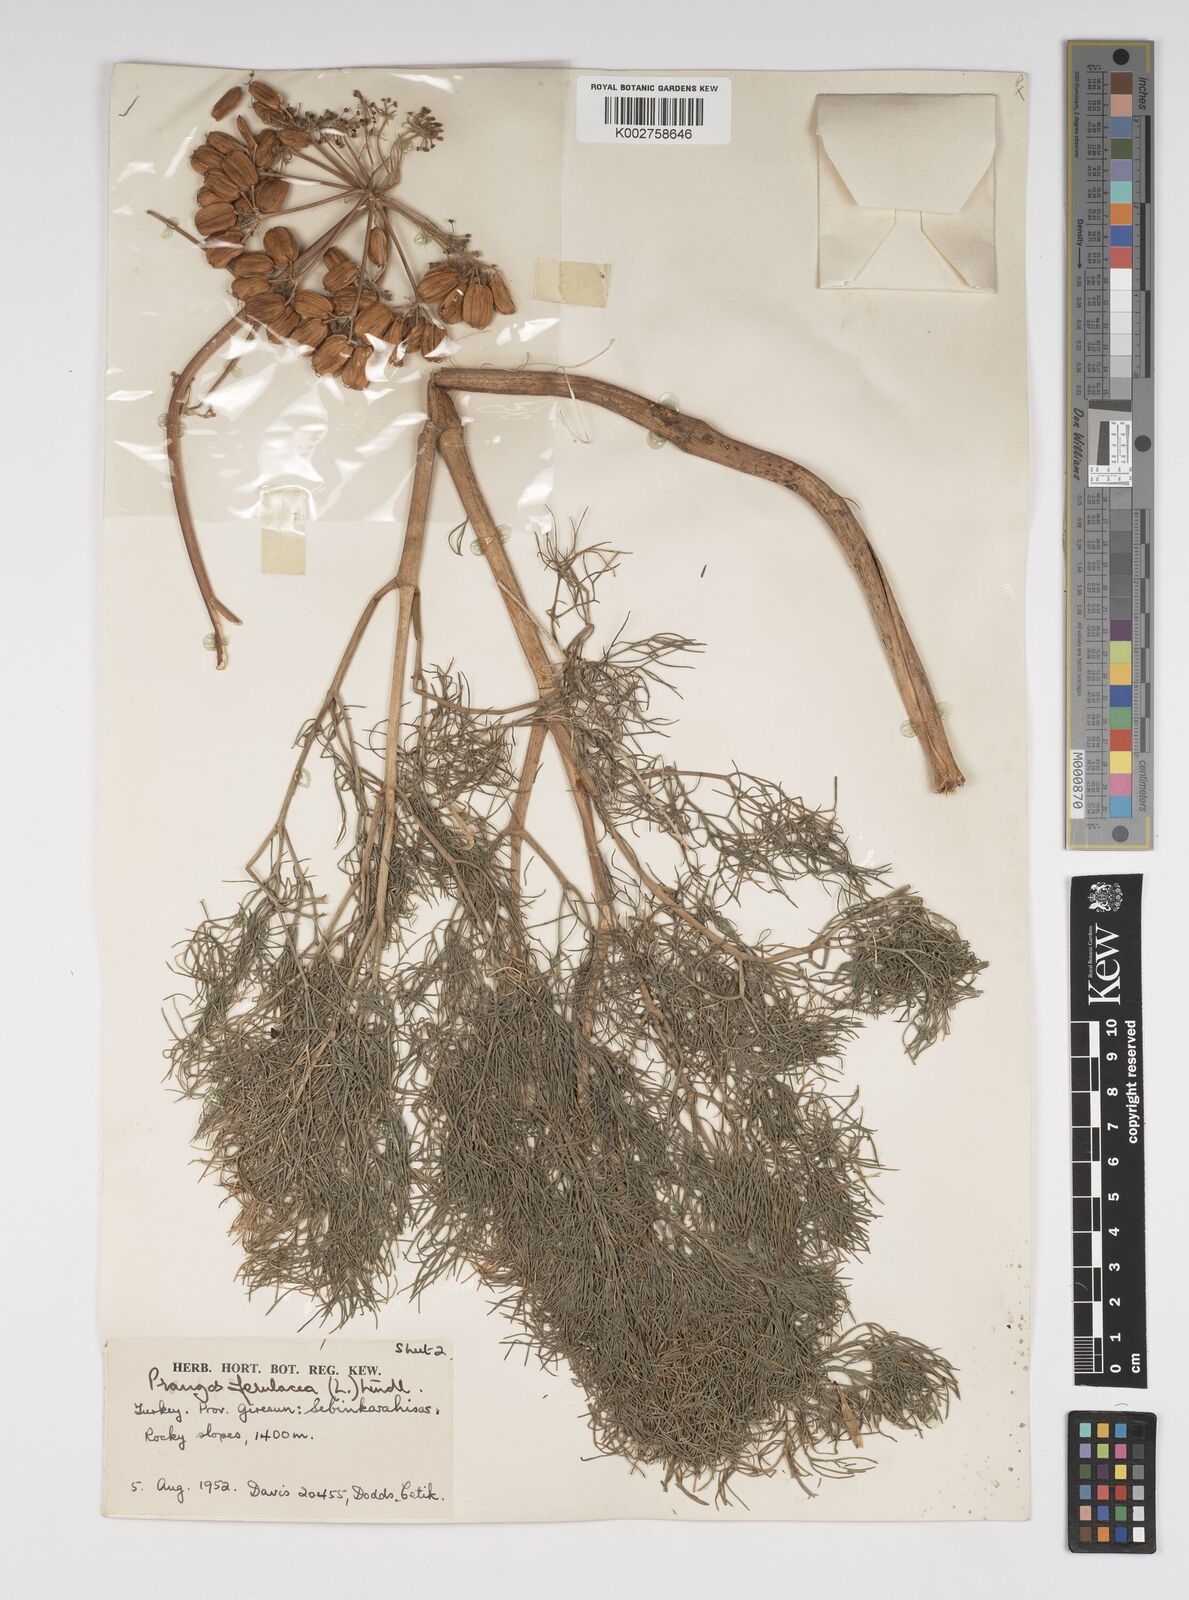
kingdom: Plantae
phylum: Tracheophyta
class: Magnoliopsida
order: Apiales
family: Apiaceae
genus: Prangos
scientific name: Prangos ferulacea
